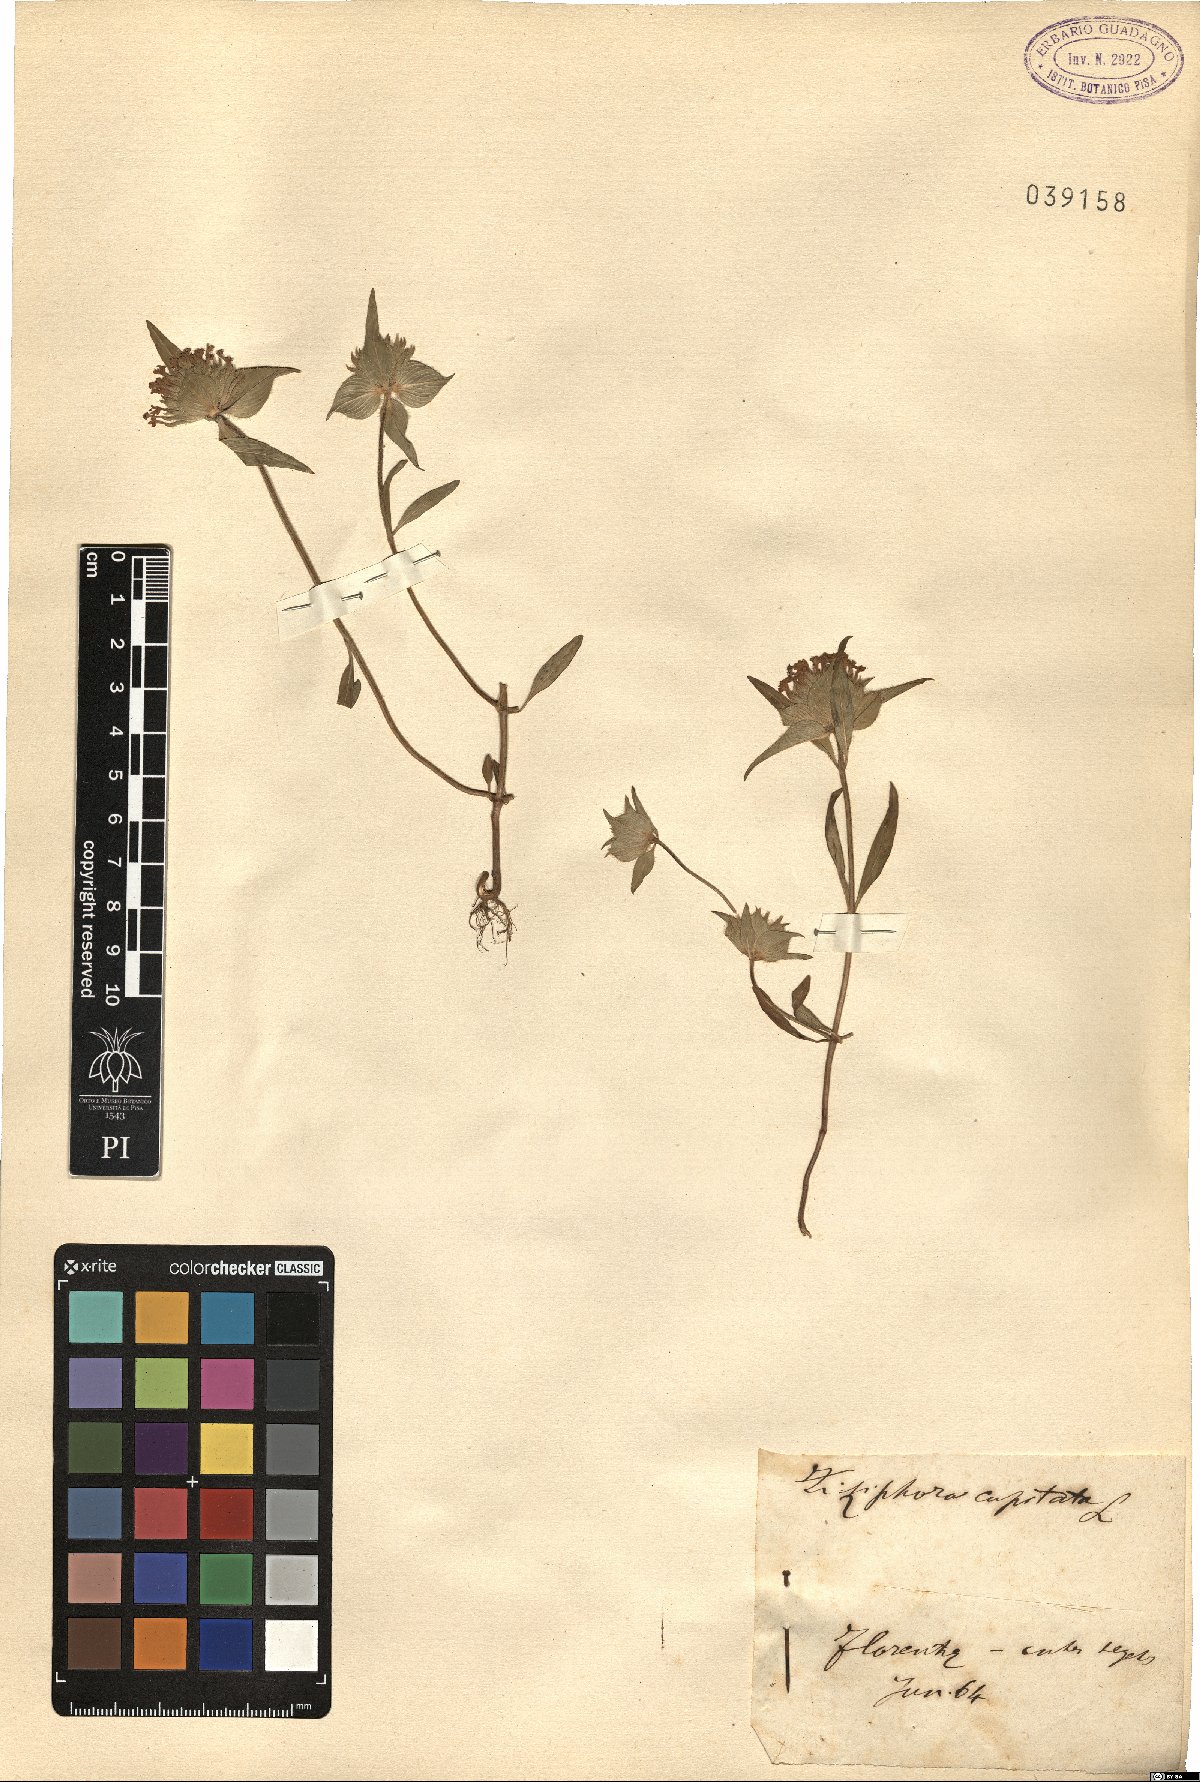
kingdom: Plantae
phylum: Tracheophyta
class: Magnoliopsida
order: Lamiales
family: Lamiaceae
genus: Ziziphora
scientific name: Ziziphora capitata
